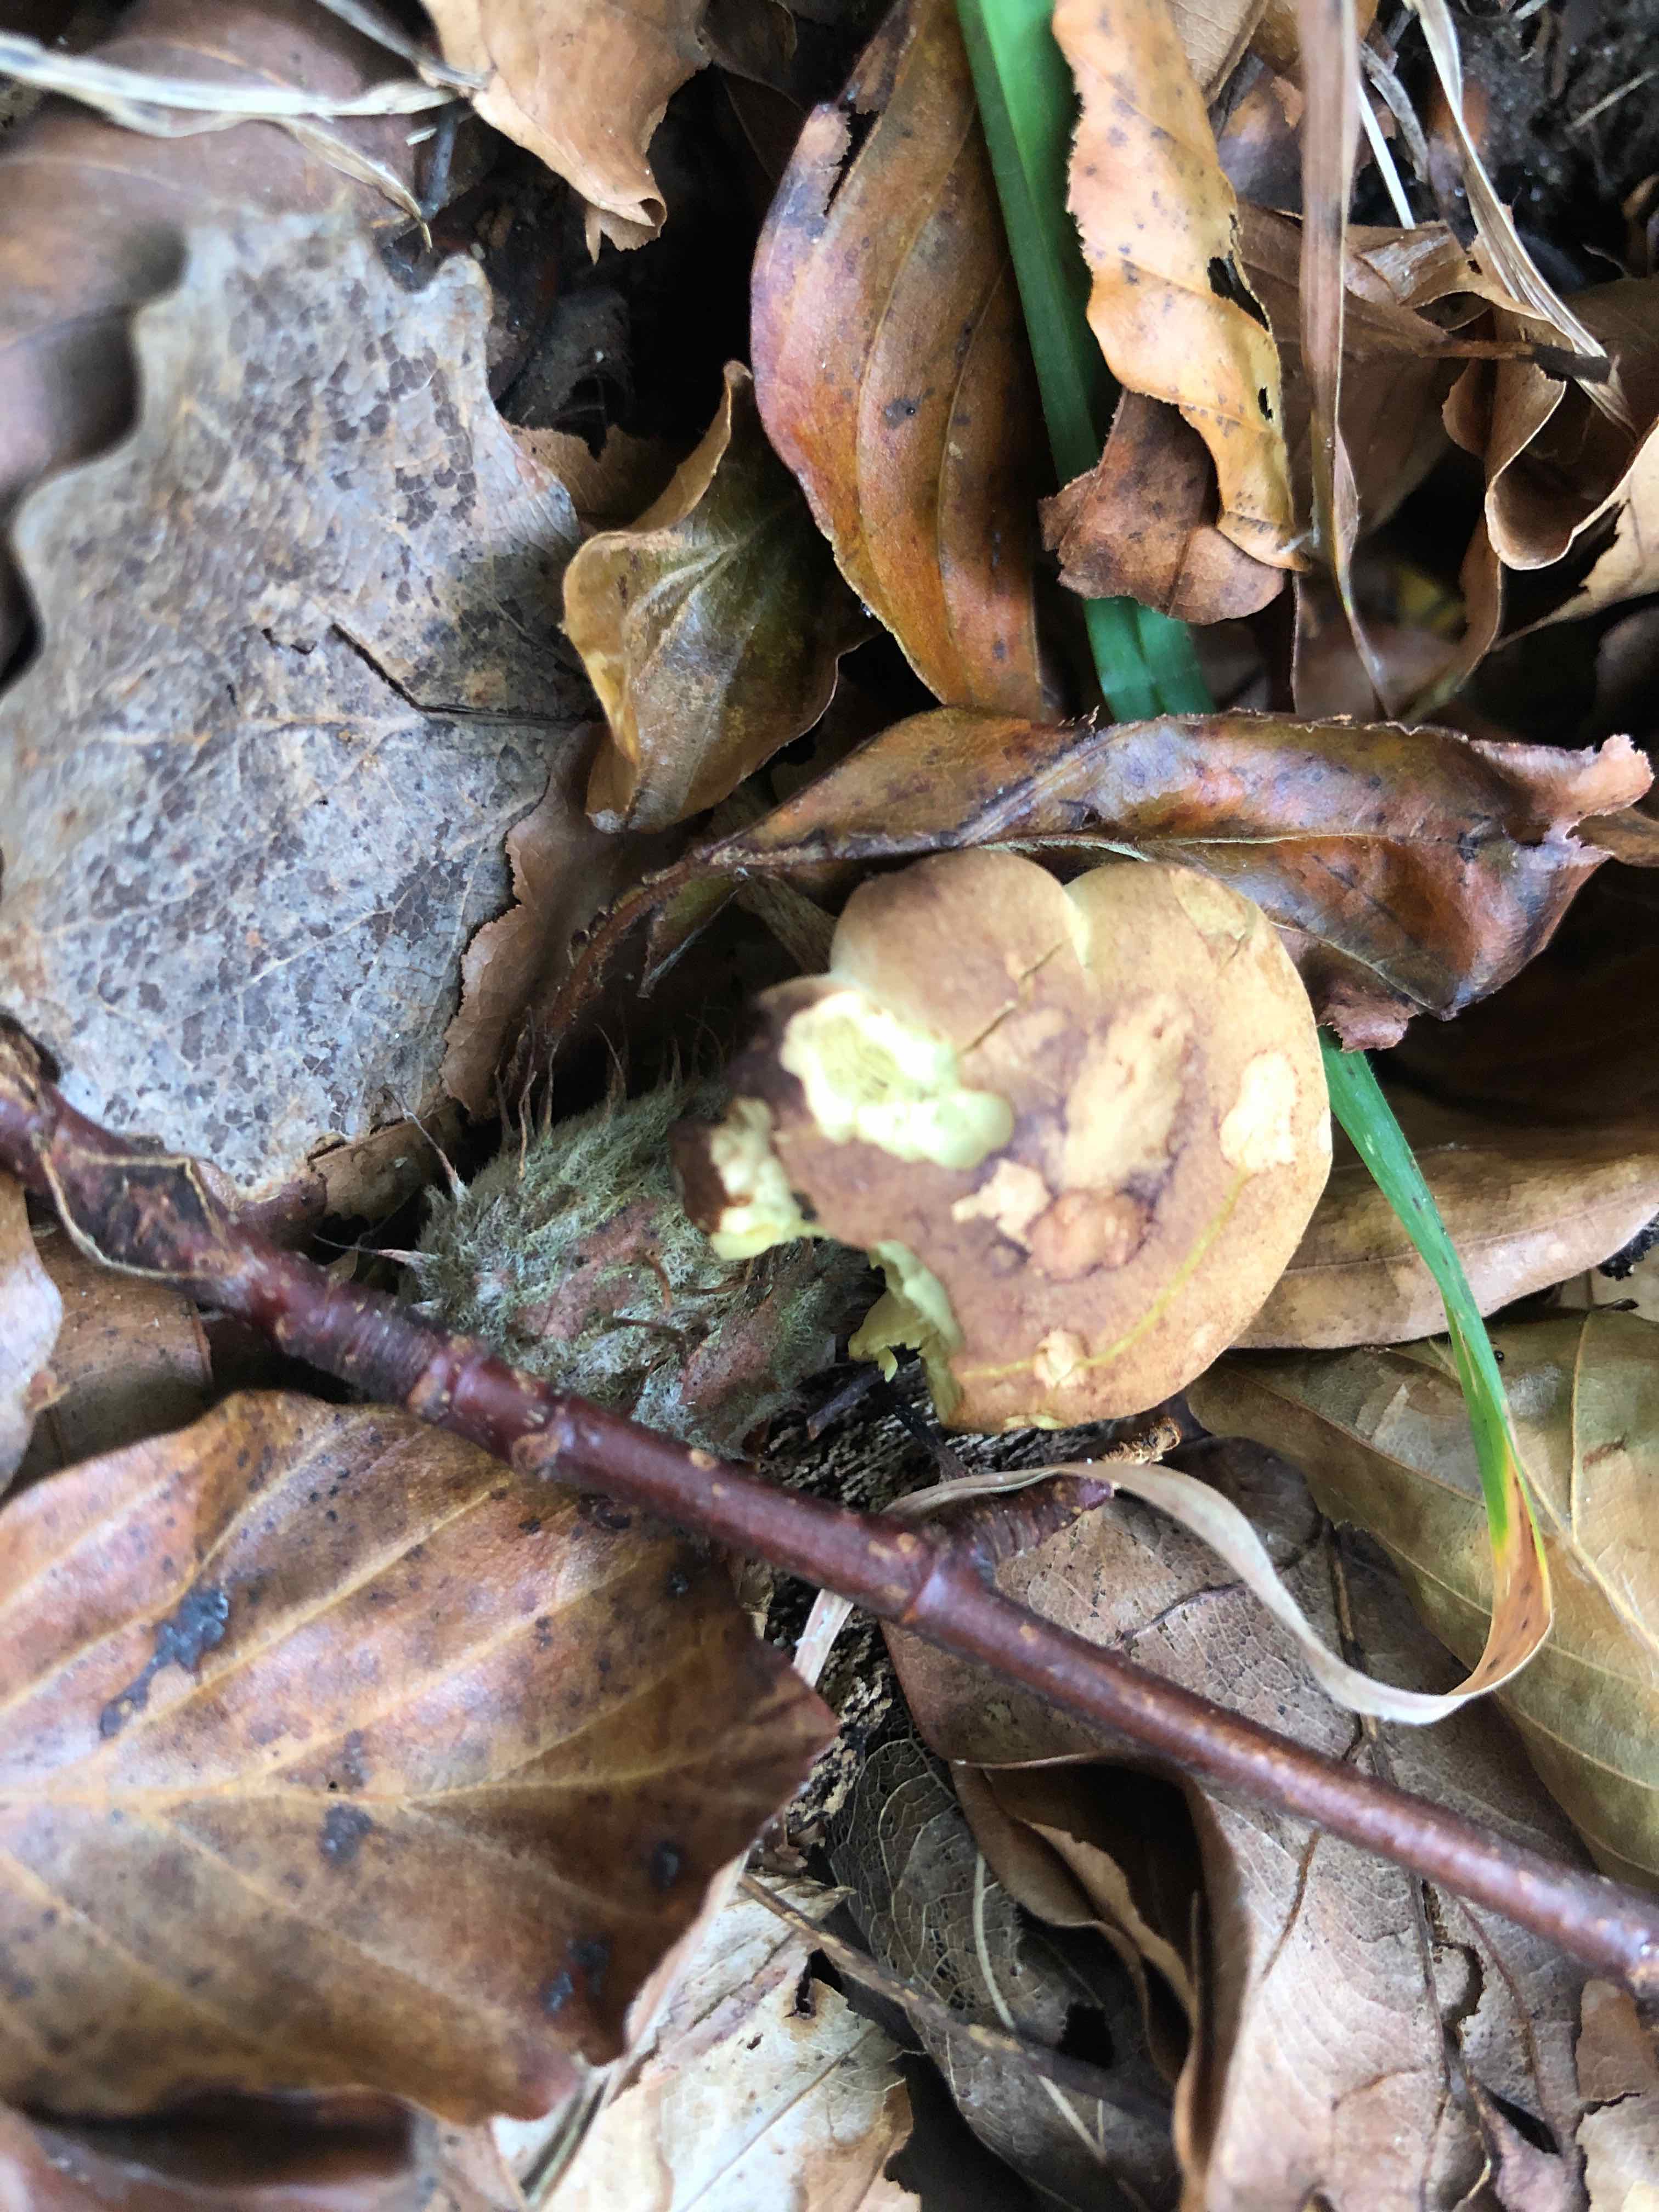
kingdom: Fungi
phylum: Basidiomycota
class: Agaricomycetes
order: Agaricales
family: Tricholomataceae
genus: Tricholoma
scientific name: Tricholoma sulphureum
